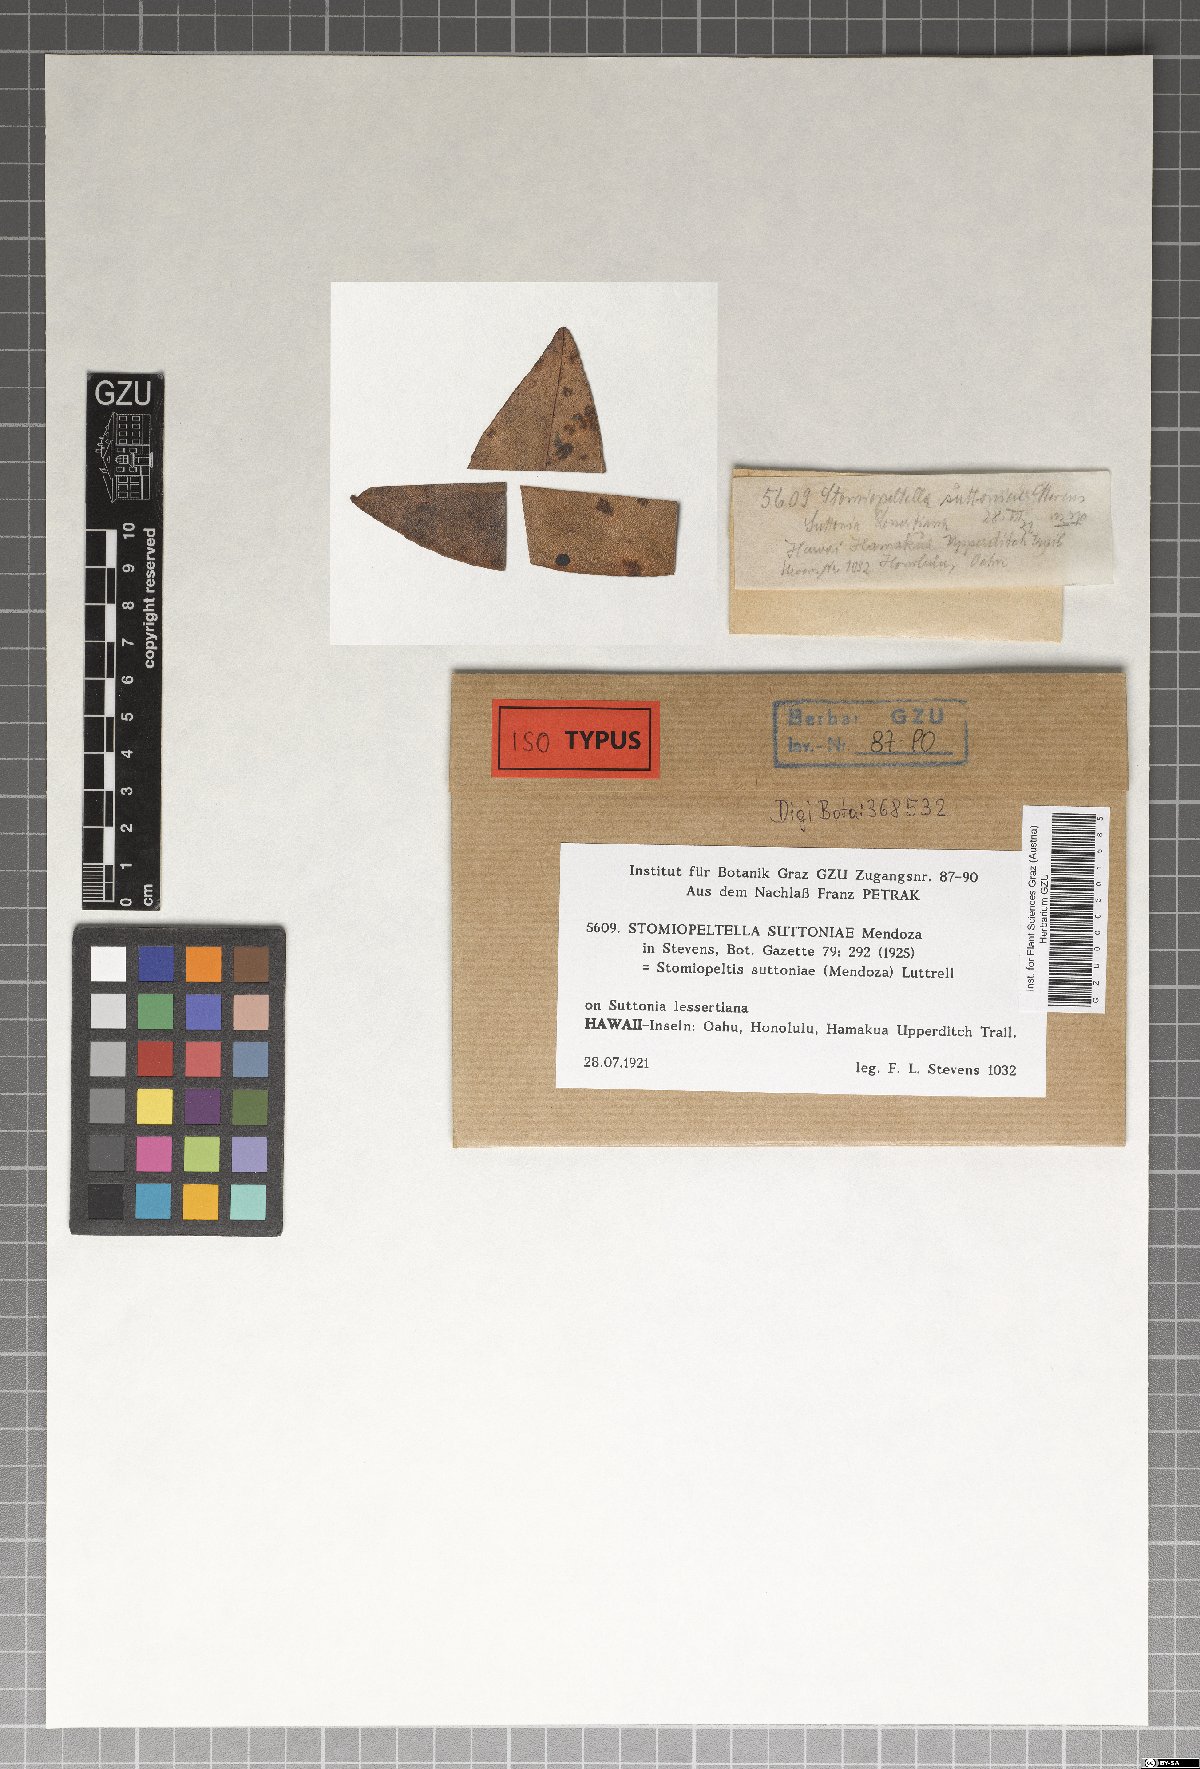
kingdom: Fungi
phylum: Ascomycota
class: Dothideomycetes
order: Microthyriales
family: Micropeltidaceae
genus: Stomiopeltis
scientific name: Stomiopeltis suttoniae
